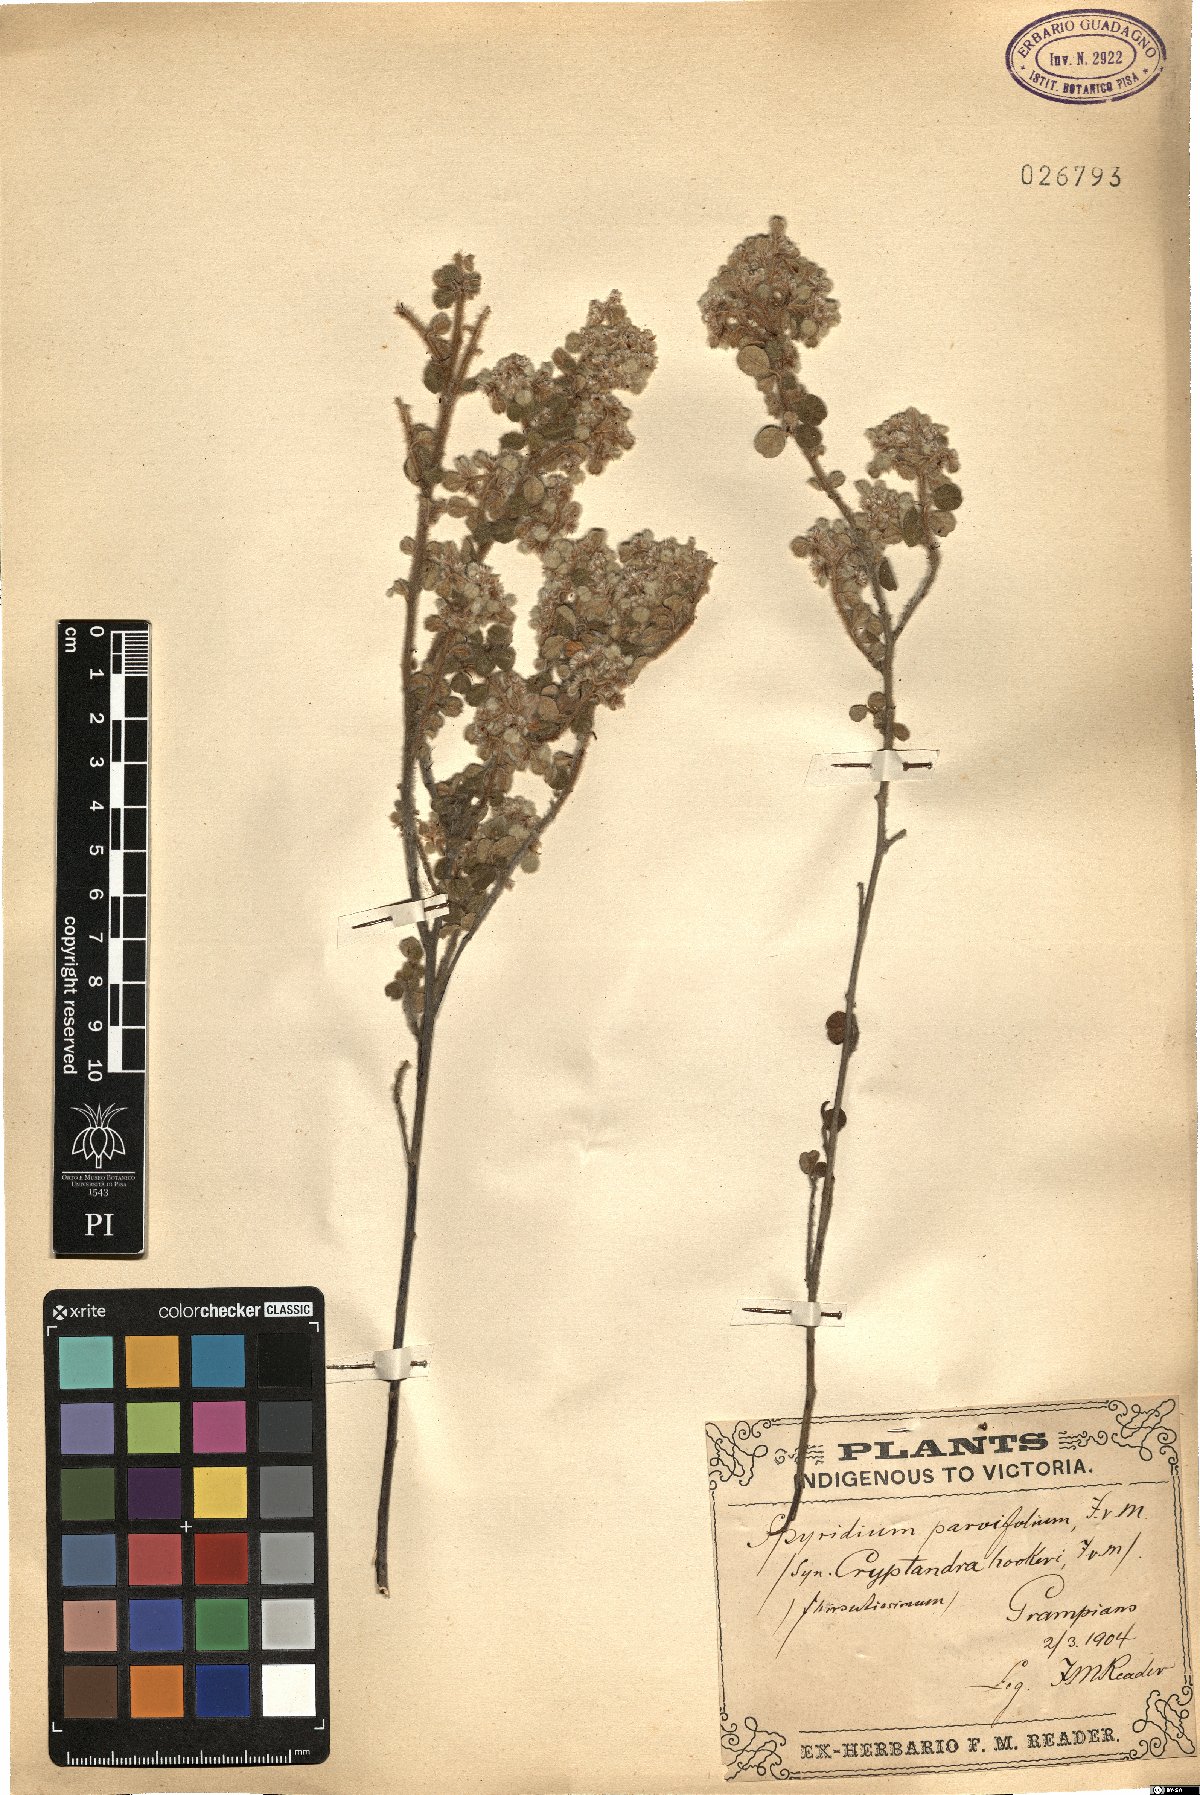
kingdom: Plantae
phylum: Tracheophyta
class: Magnoliopsida
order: Rosales
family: Rhamnaceae
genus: Spyridium
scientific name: Spyridium parvifolium
